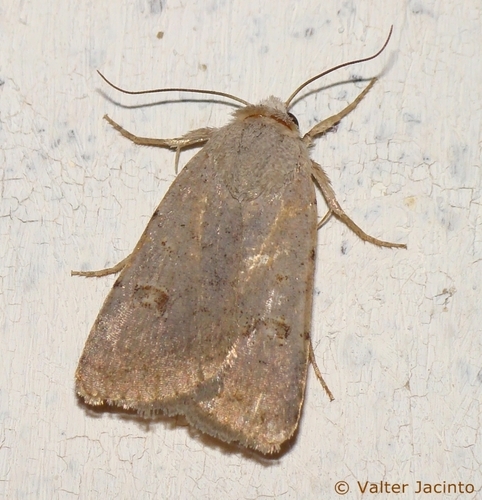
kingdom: Animalia
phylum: Arthropoda
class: Insecta
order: Lepidoptera
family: Noctuidae
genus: Caradrina
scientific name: Caradrina proxima
